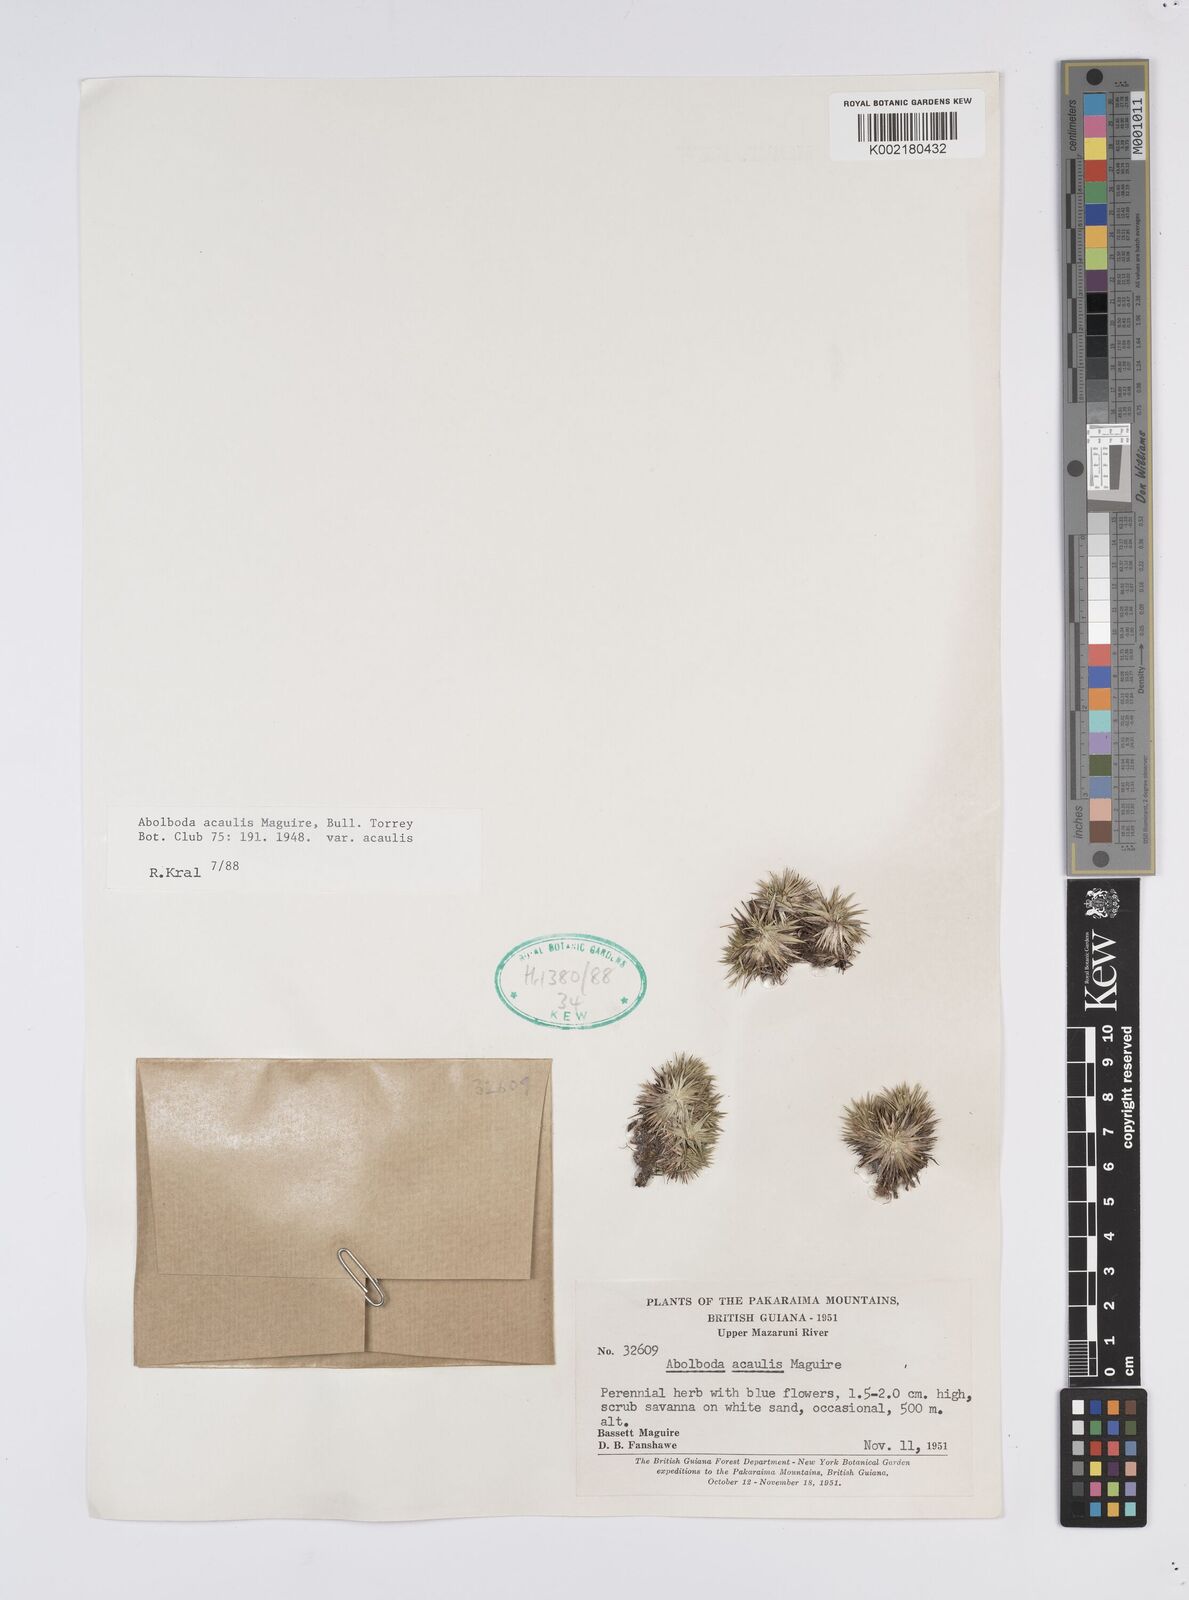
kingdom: Plantae
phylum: Tracheophyta
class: Liliopsida
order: Poales
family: Xyridaceae
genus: Abolboda
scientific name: Abolboda acaulis
